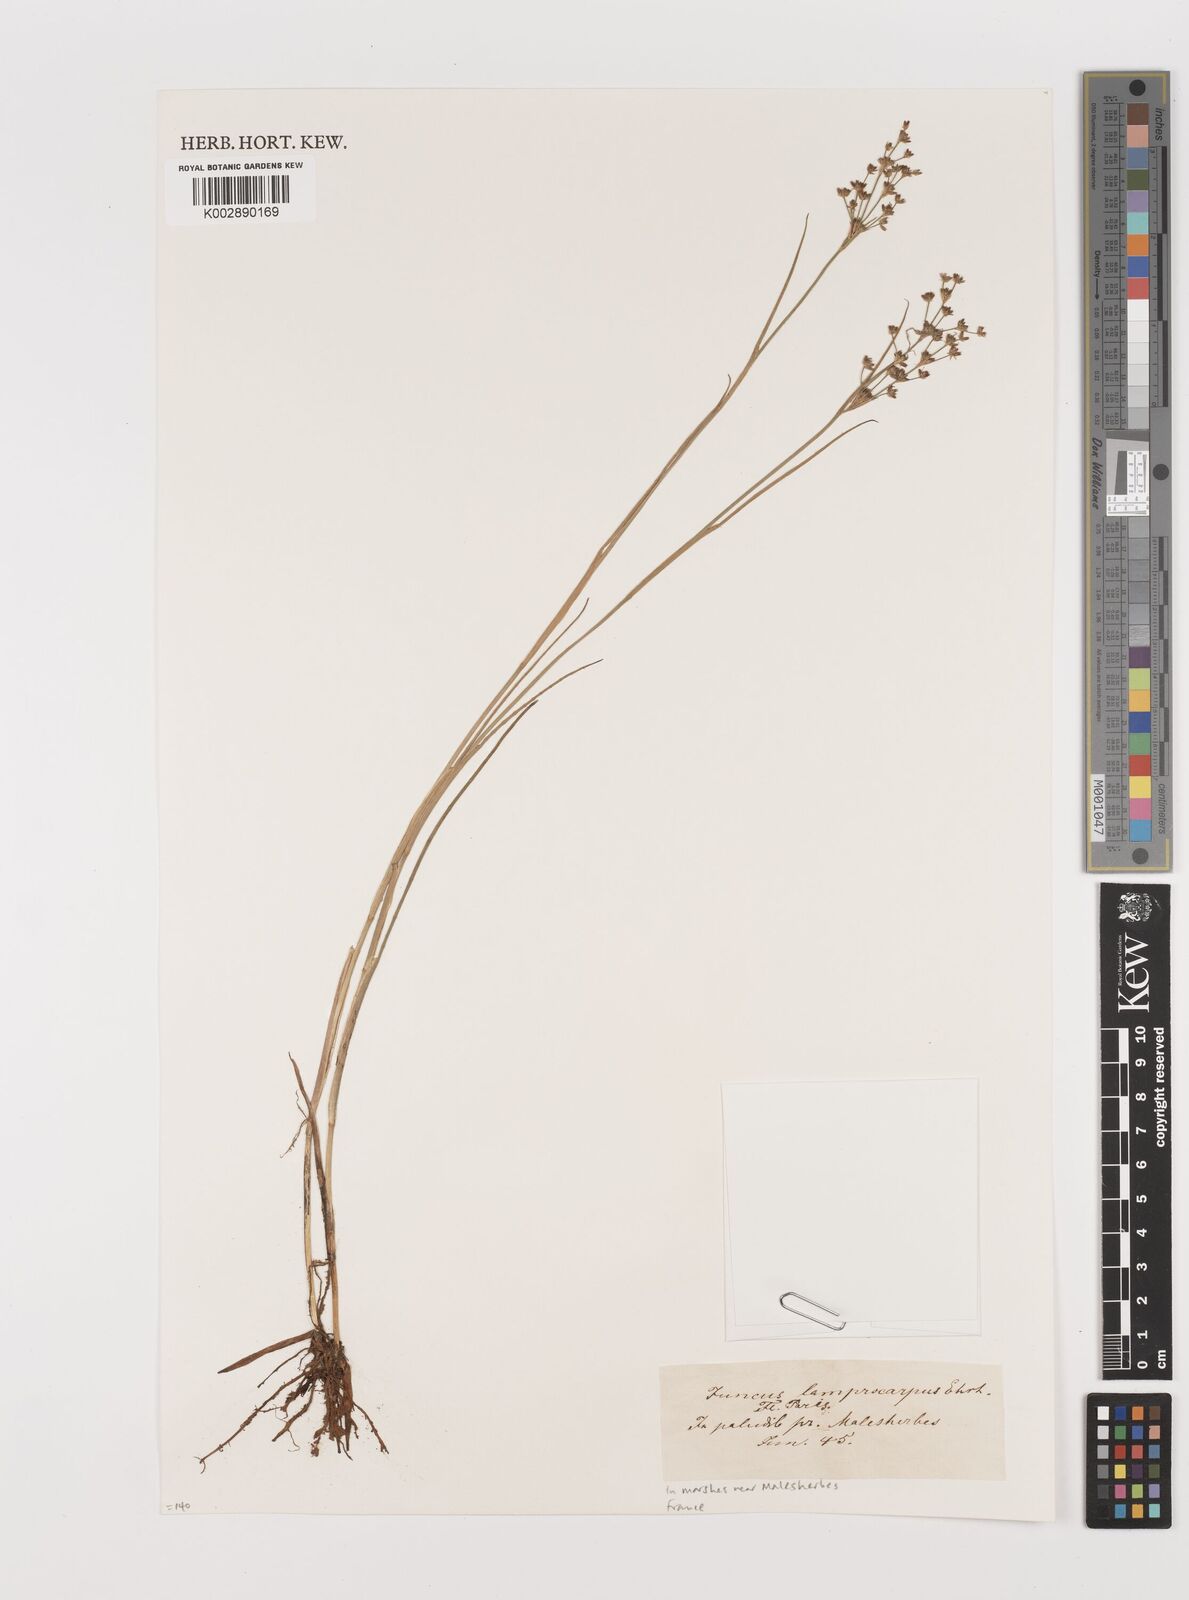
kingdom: Plantae
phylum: Tracheophyta
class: Liliopsida
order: Poales
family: Juncaceae
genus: Juncus
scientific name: Juncus articulatus
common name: Jointed rush
